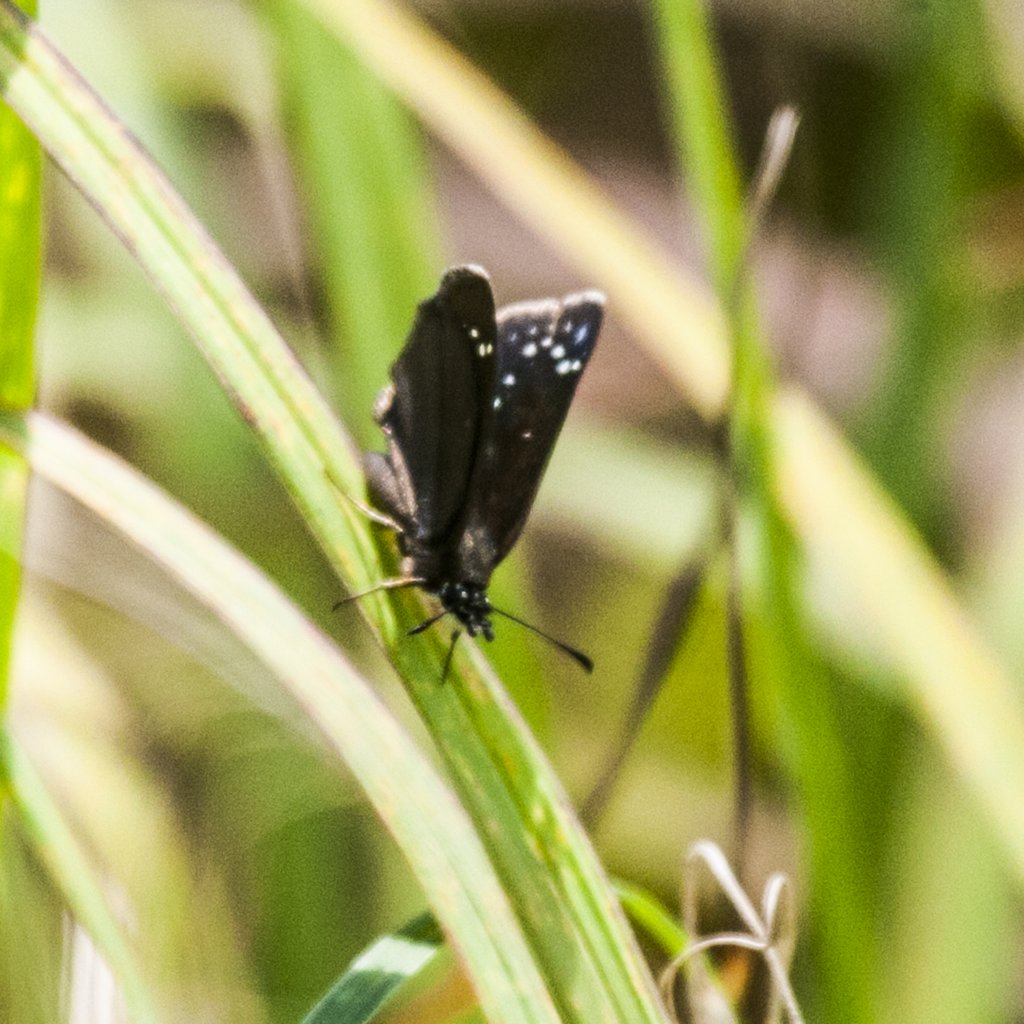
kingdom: Animalia
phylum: Arthropoda
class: Insecta
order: Lepidoptera
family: Hesperiidae
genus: Pholisora
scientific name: Pholisora catullus
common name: Common Sootywing
